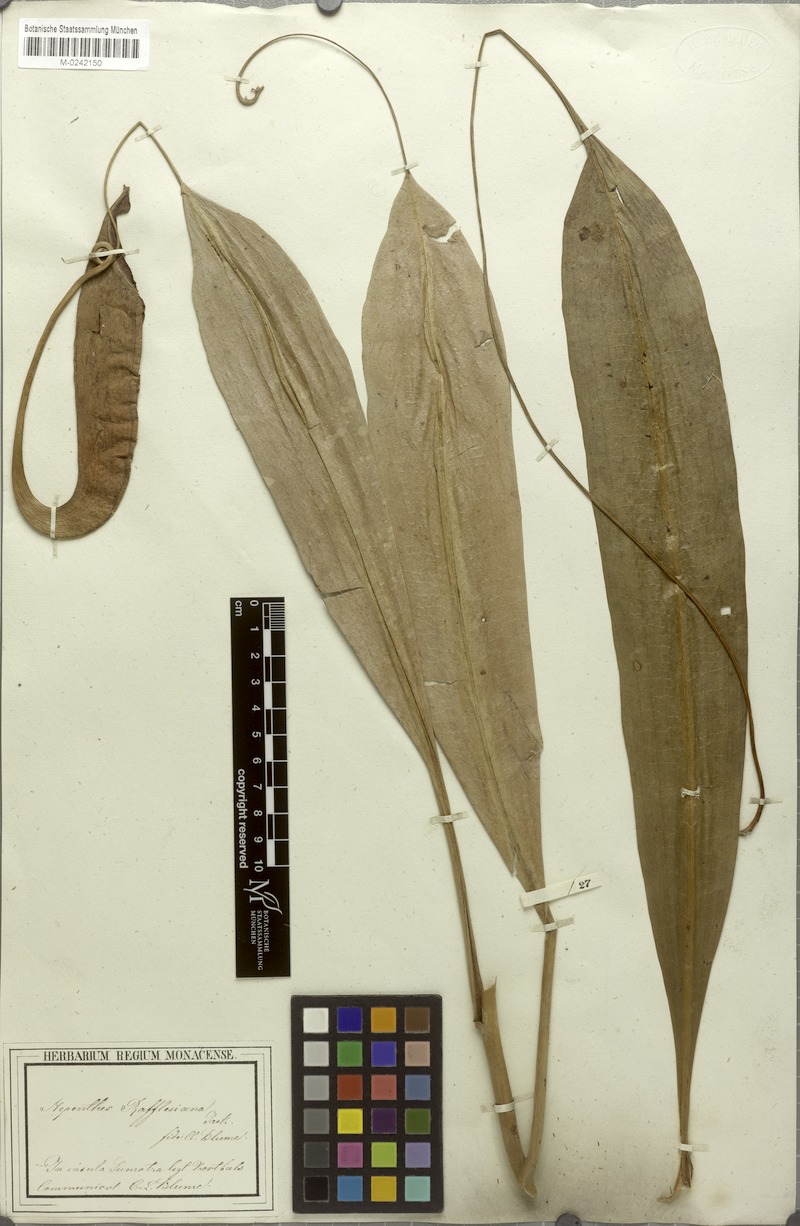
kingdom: Plantae
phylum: Tracheophyta
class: Magnoliopsida
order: Caryophyllales
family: Nepenthaceae
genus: Nepenthes
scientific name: Nepenthes rafflesiana
